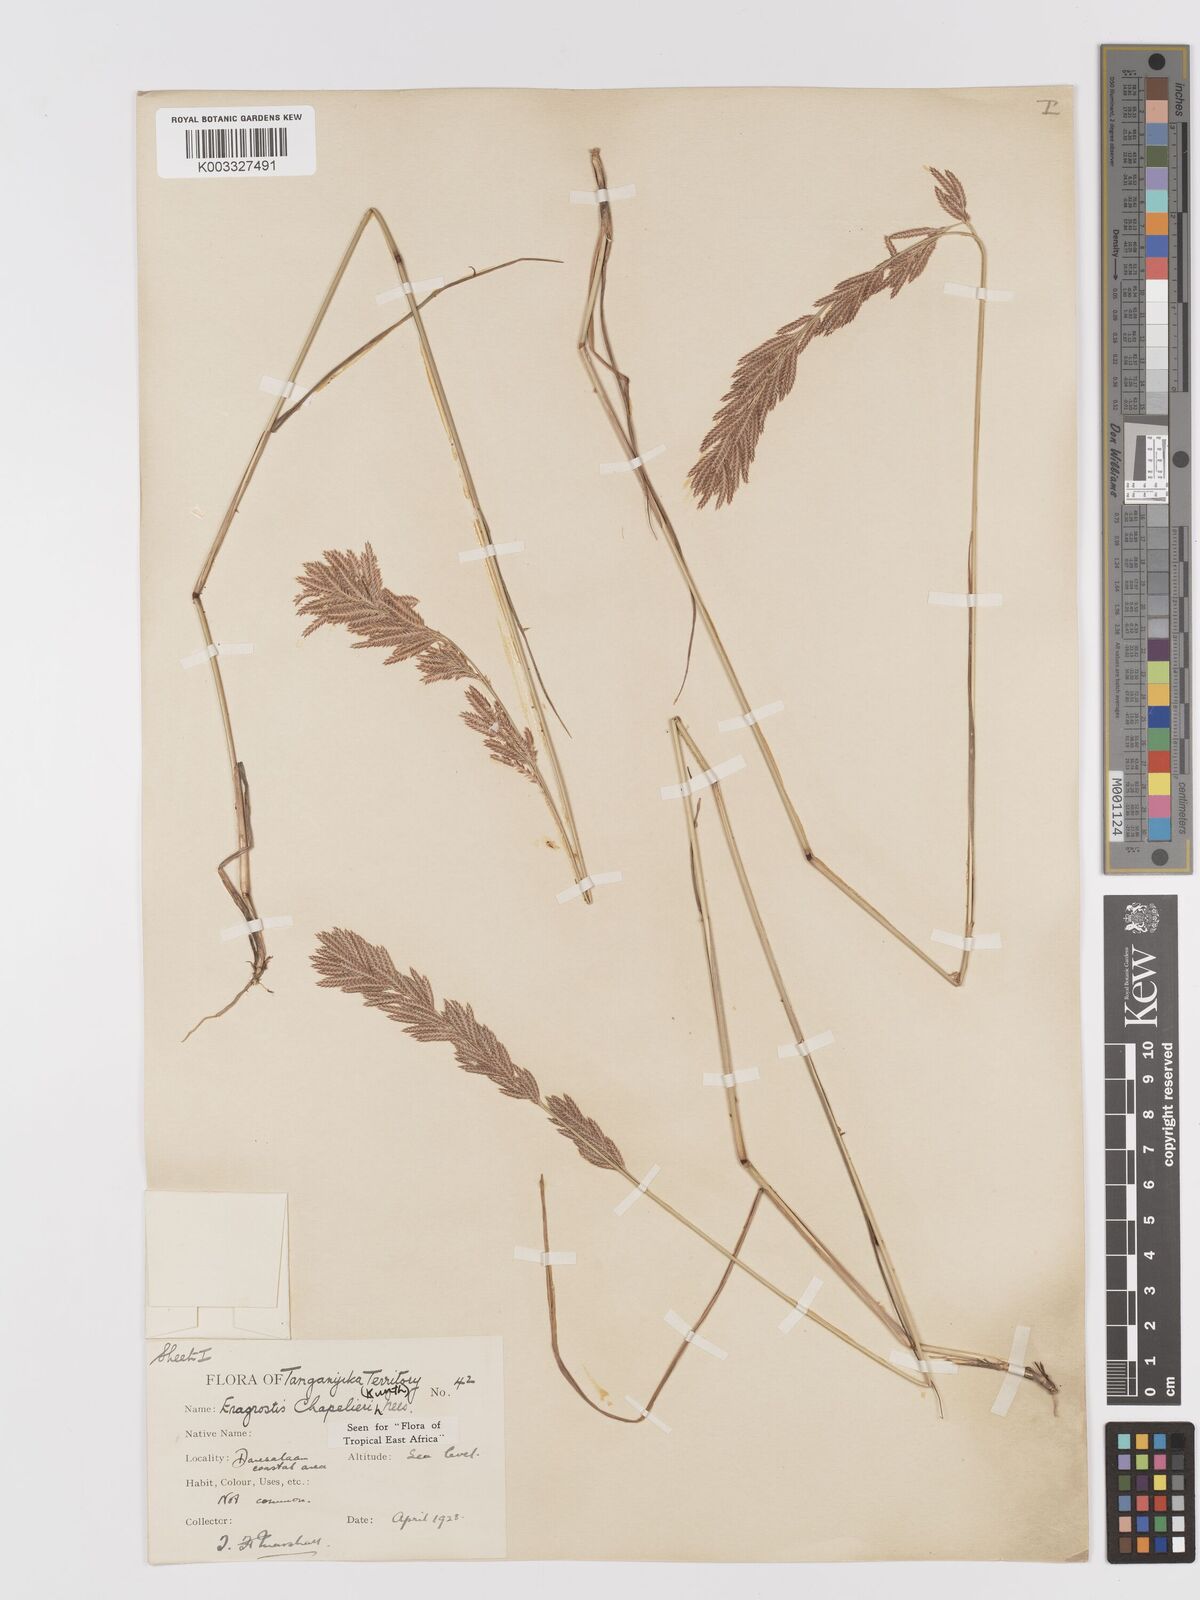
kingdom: Plantae
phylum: Tracheophyta
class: Liliopsida
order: Poales
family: Poaceae
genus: Eragrostis
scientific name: Eragrostis chapelieri
